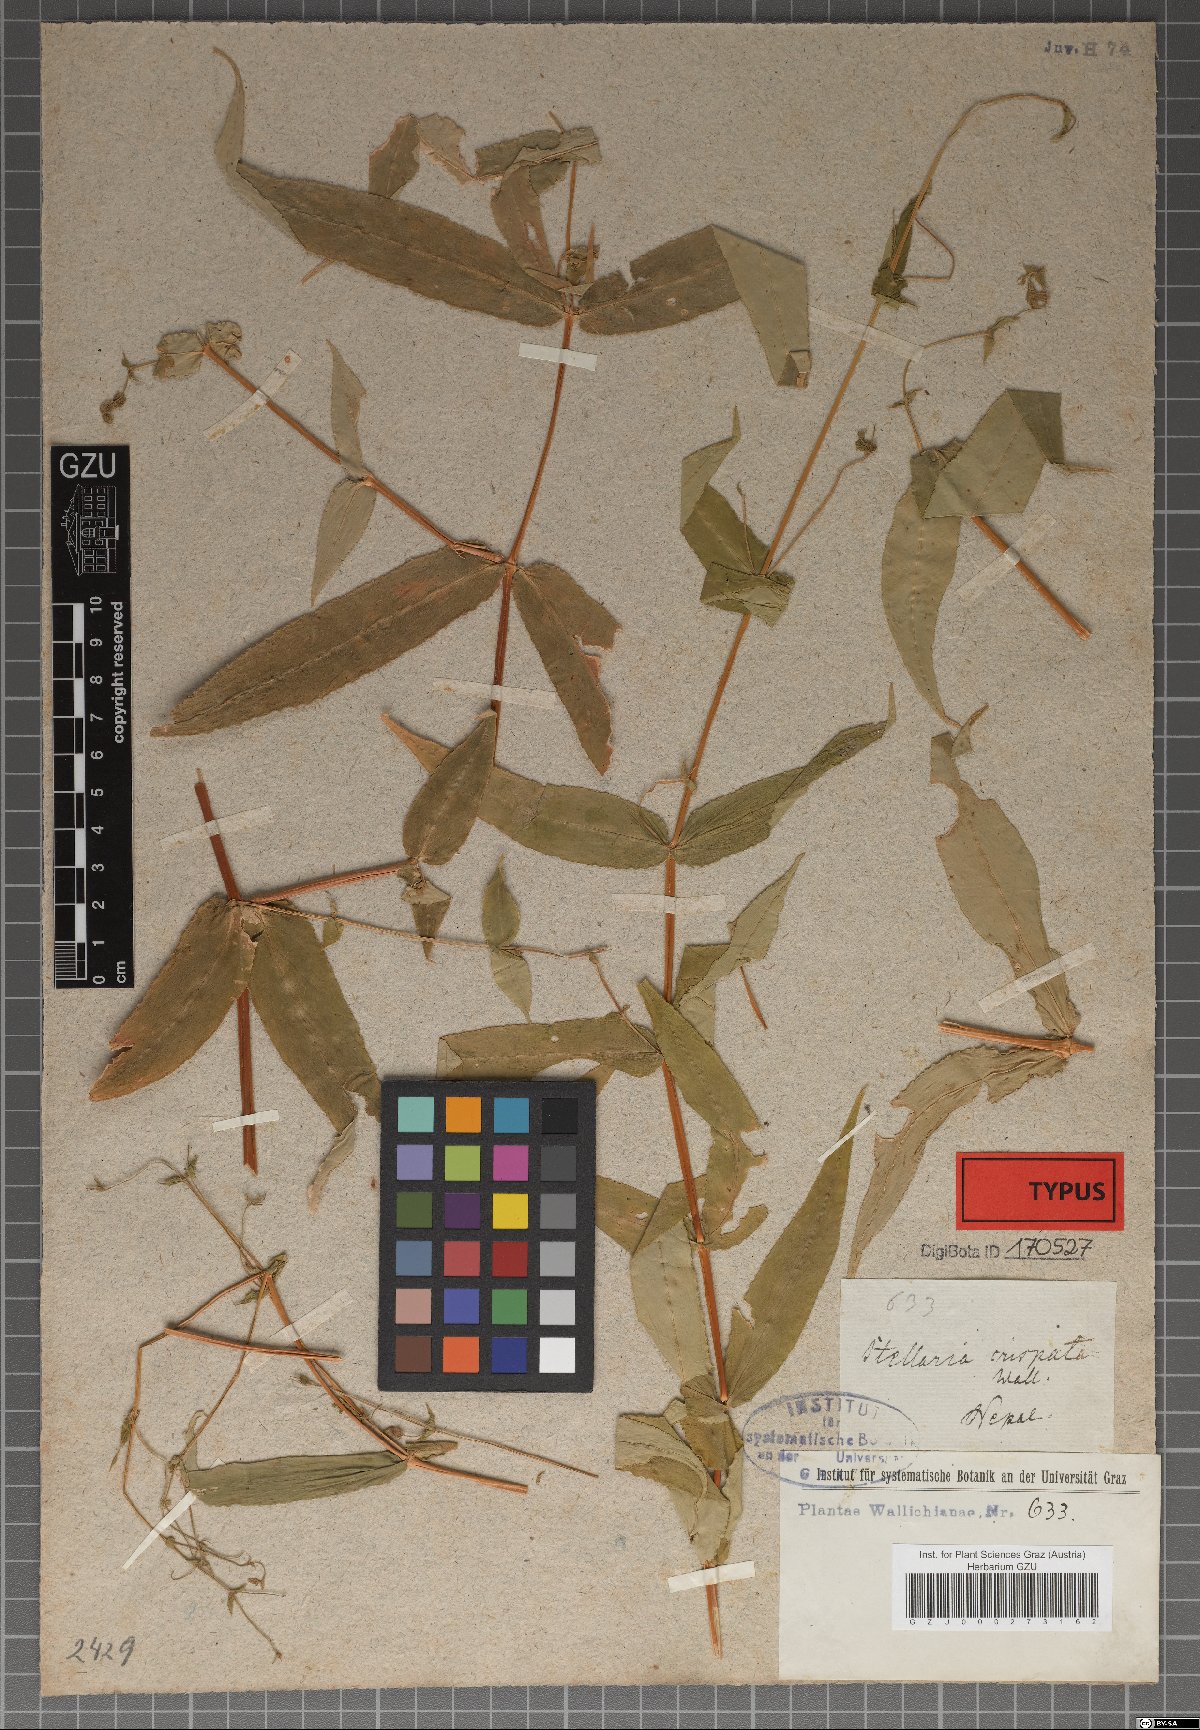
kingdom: Plantae
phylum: Tracheophyta
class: Magnoliopsida
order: Caryophyllales
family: Caryophyllaceae
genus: Schizotechium
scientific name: Schizotechium monospermum
